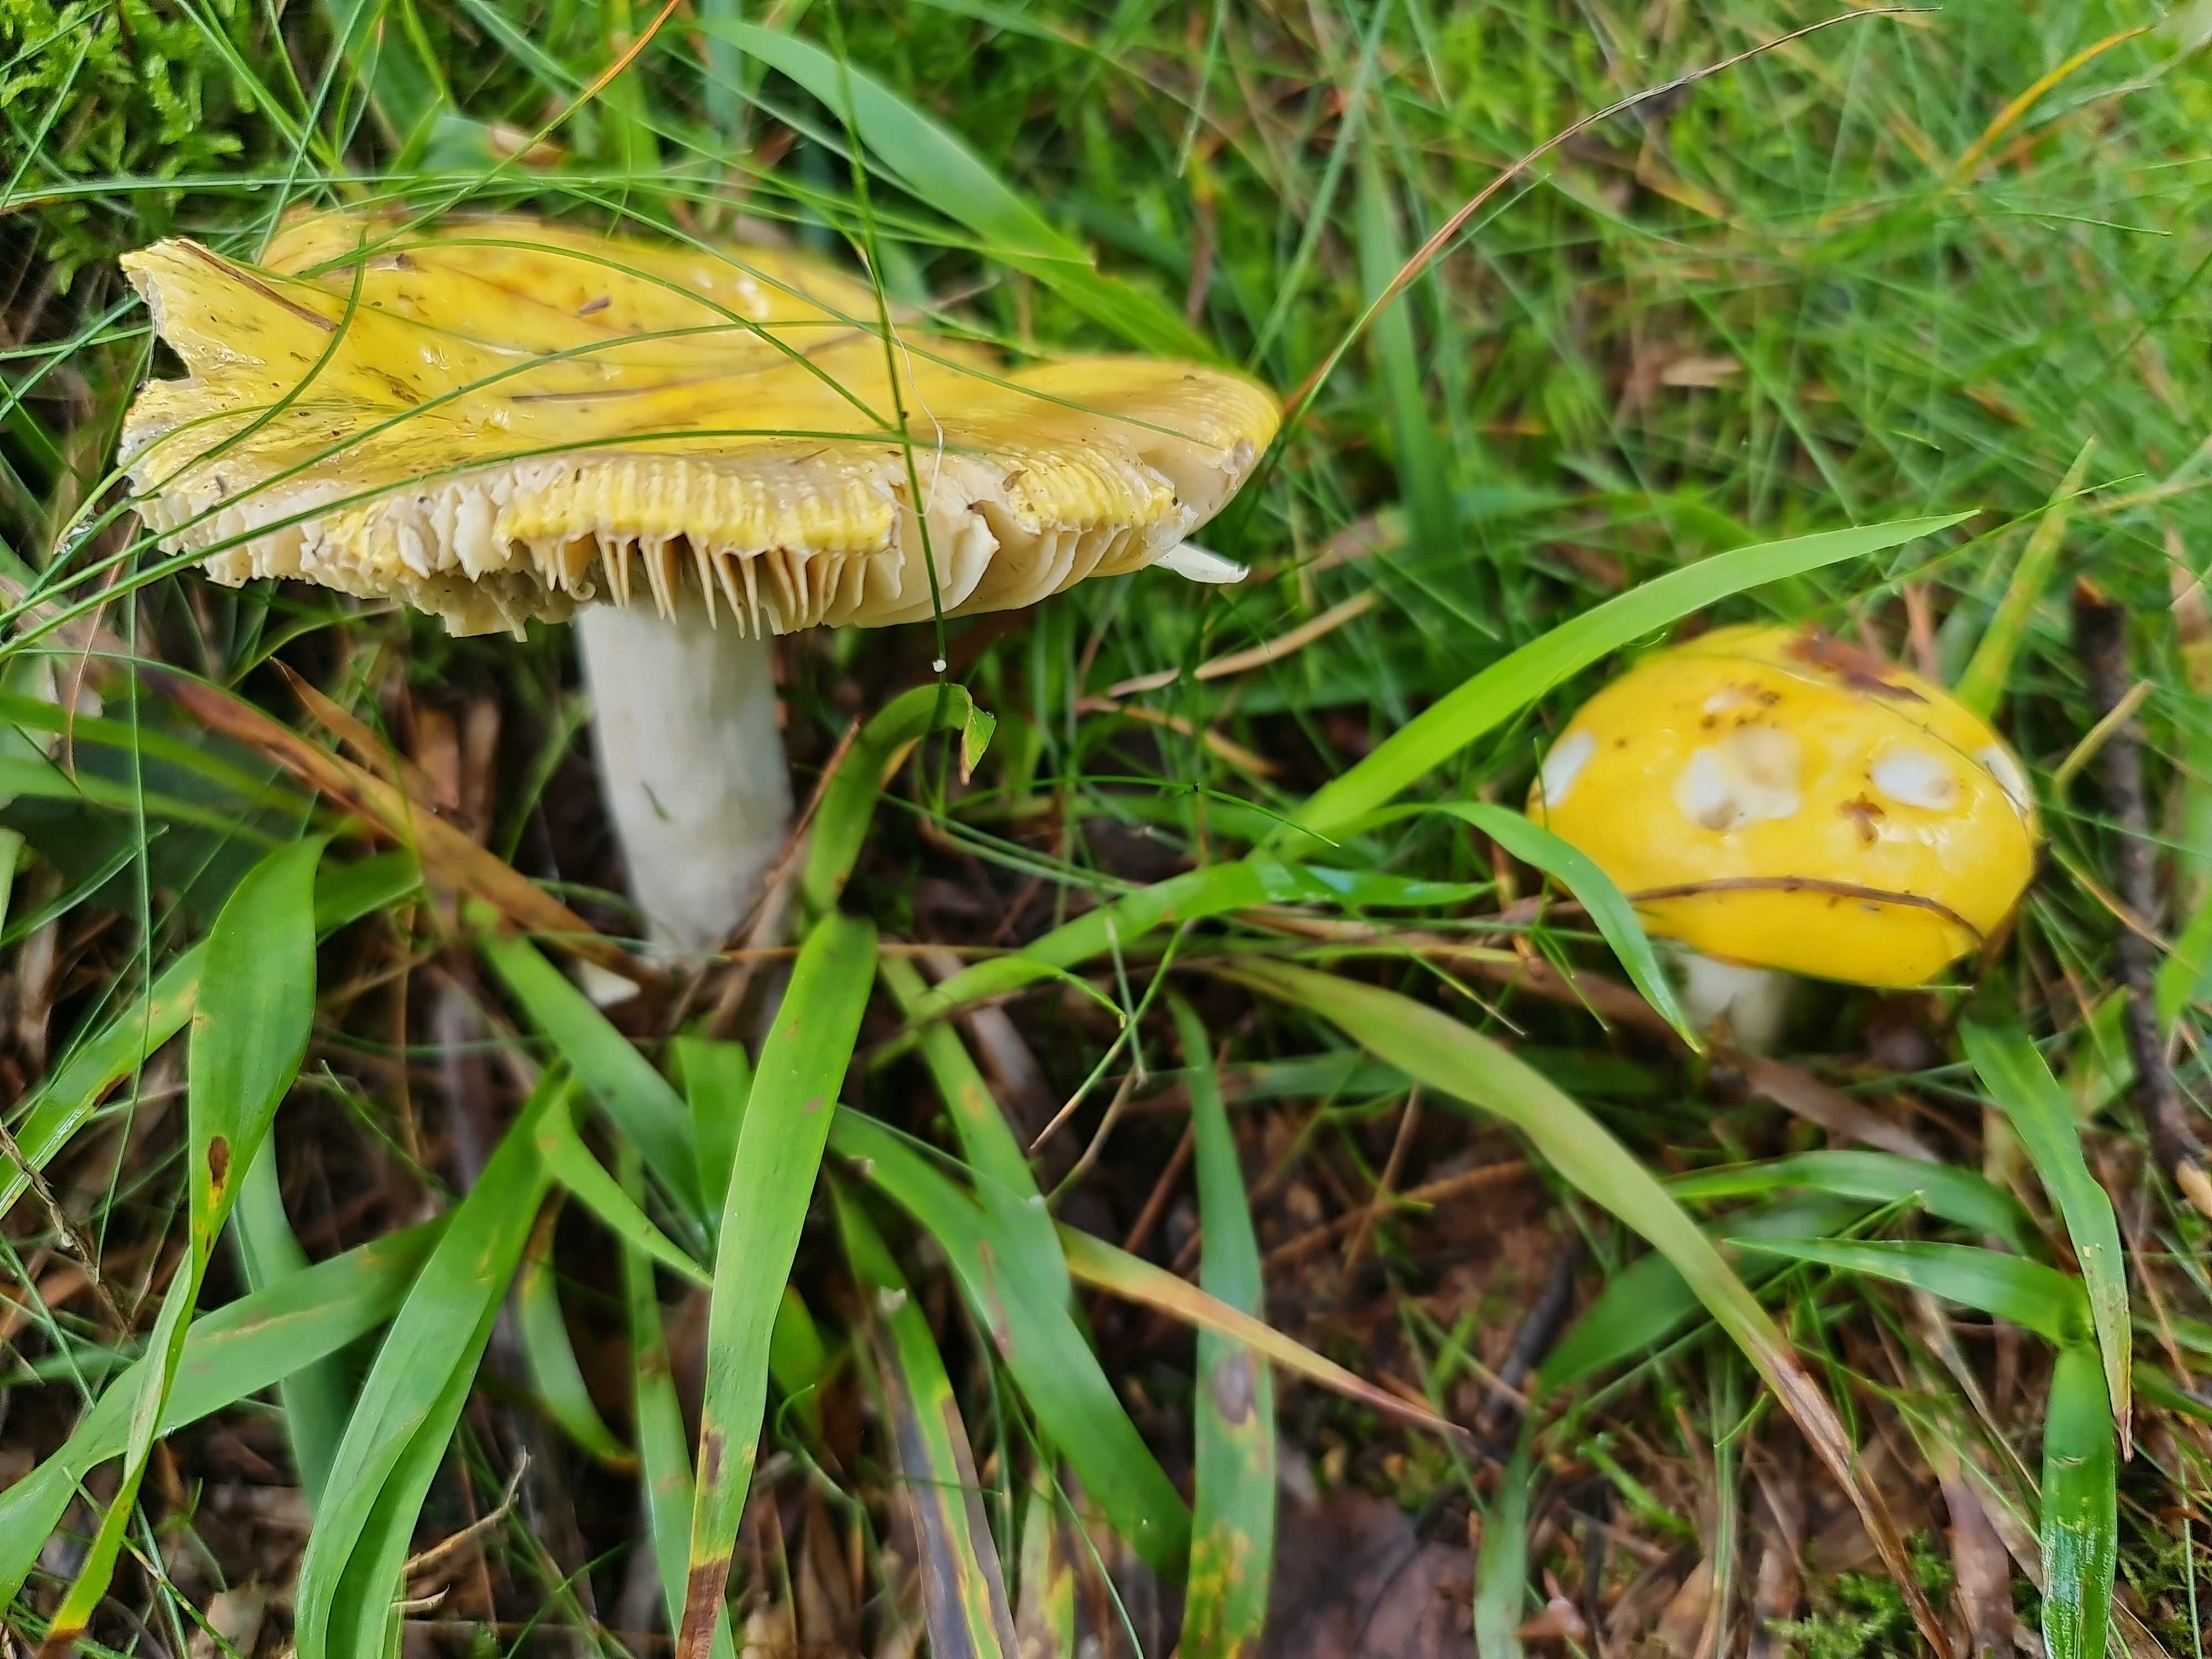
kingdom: Fungi
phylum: Basidiomycota
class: Agaricomycetes
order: Russulales
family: Russulaceae
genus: Russula
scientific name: Russula
